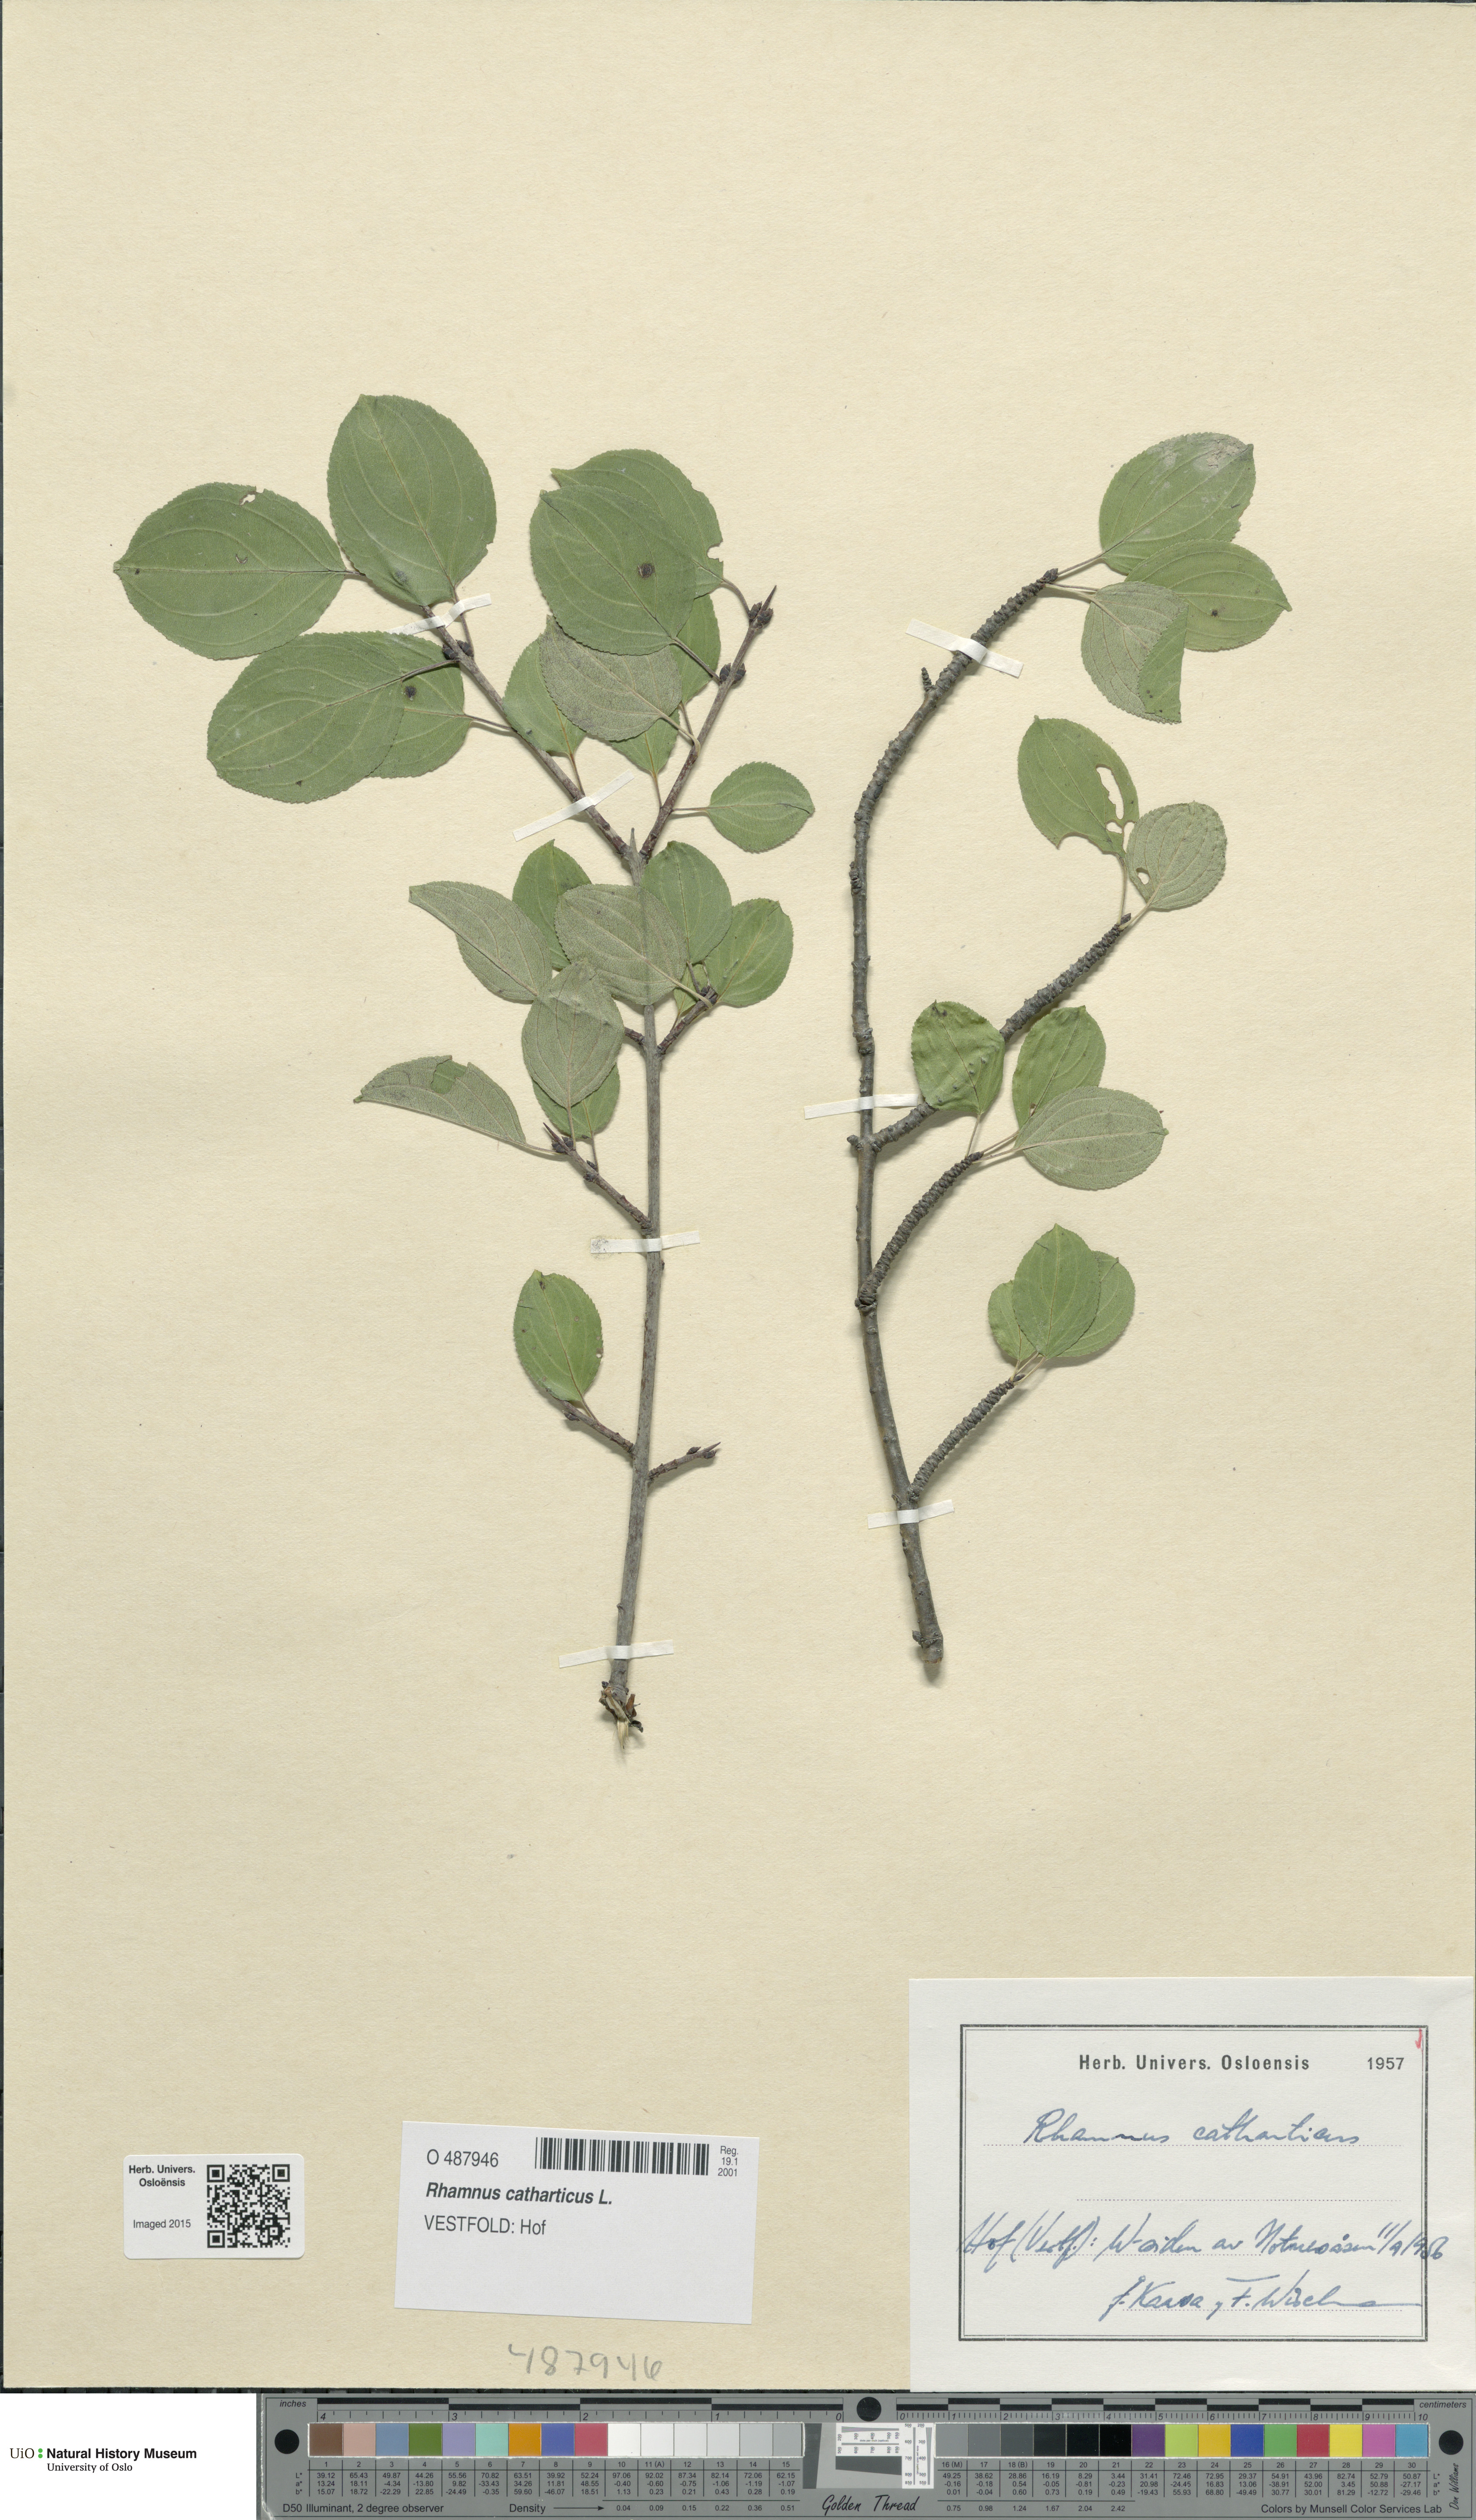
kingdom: Plantae
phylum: Tracheophyta
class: Magnoliopsida
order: Rosales
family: Rhamnaceae
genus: Rhamnus
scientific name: Rhamnus cathartica
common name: Common buckthorn
